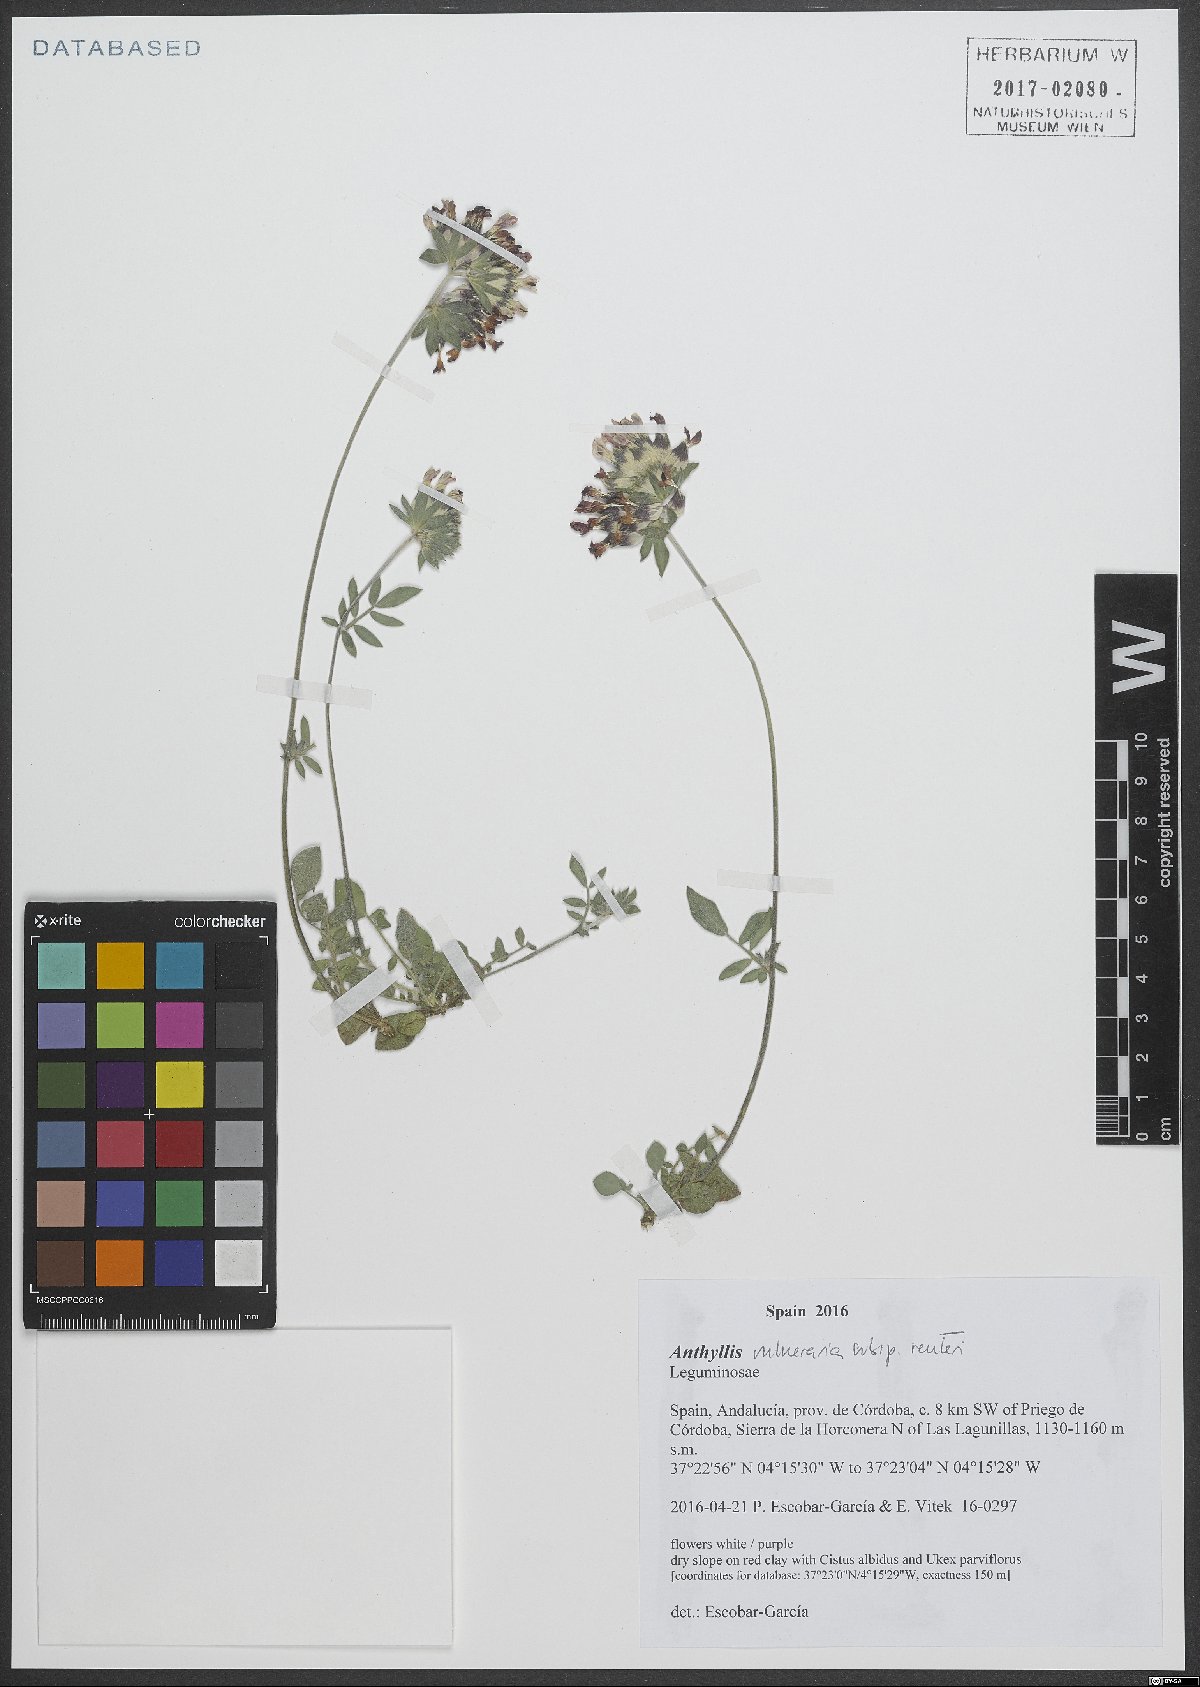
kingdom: Plantae
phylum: Tracheophyta
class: Magnoliopsida
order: Fabales
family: Fabaceae
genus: Anthyllis
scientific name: Anthyllis vulneraria
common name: Kidney vetch
